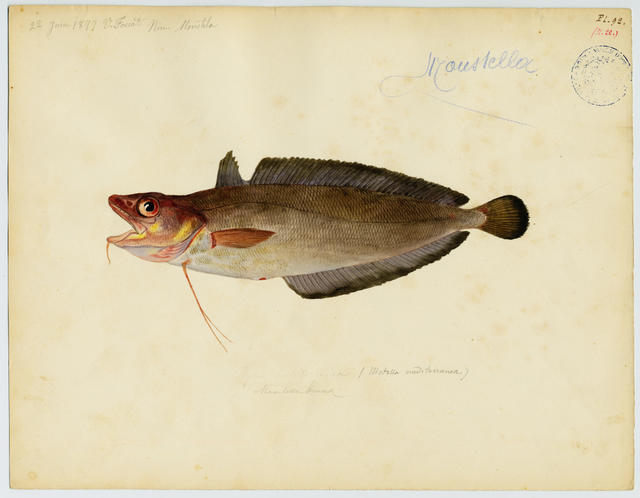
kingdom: Animalia
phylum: Chordata
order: Gadiformes
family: Phycidae
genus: Phycis
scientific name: Phycis phycis
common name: Forkbeard
